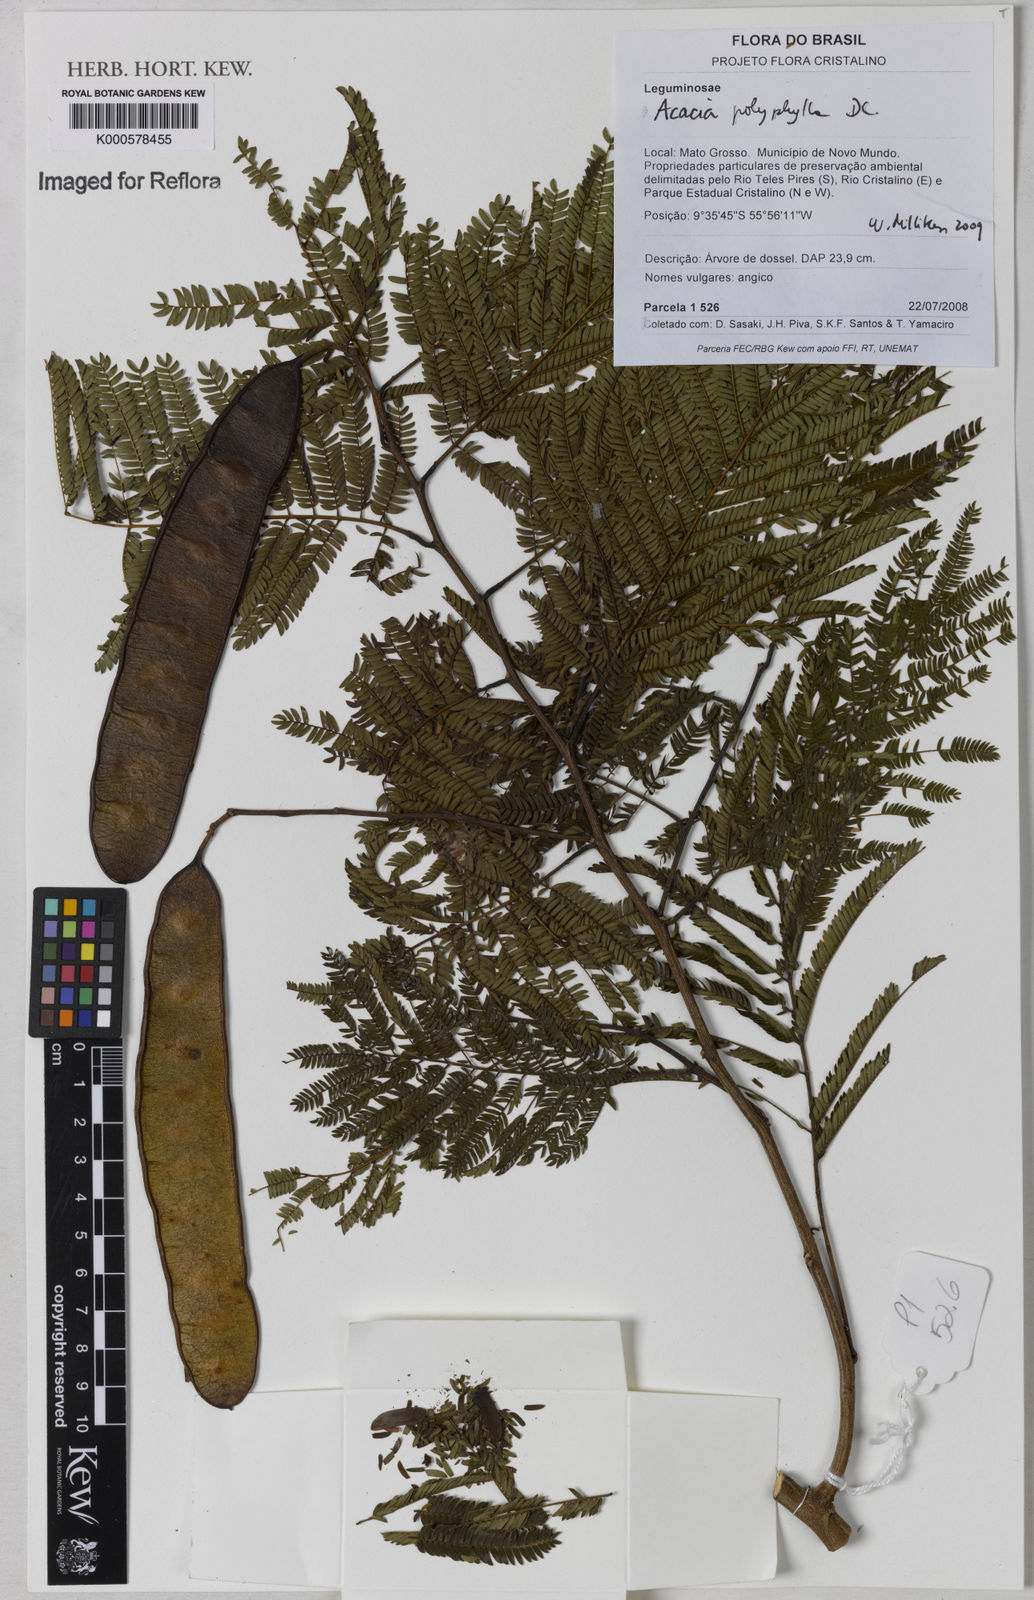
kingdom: Plantae
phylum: Tracheophyta
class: Magnoliopsida
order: Fabales
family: Fabaceae
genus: Senegalia
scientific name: Senegalia polyphylla
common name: White-tamarind
